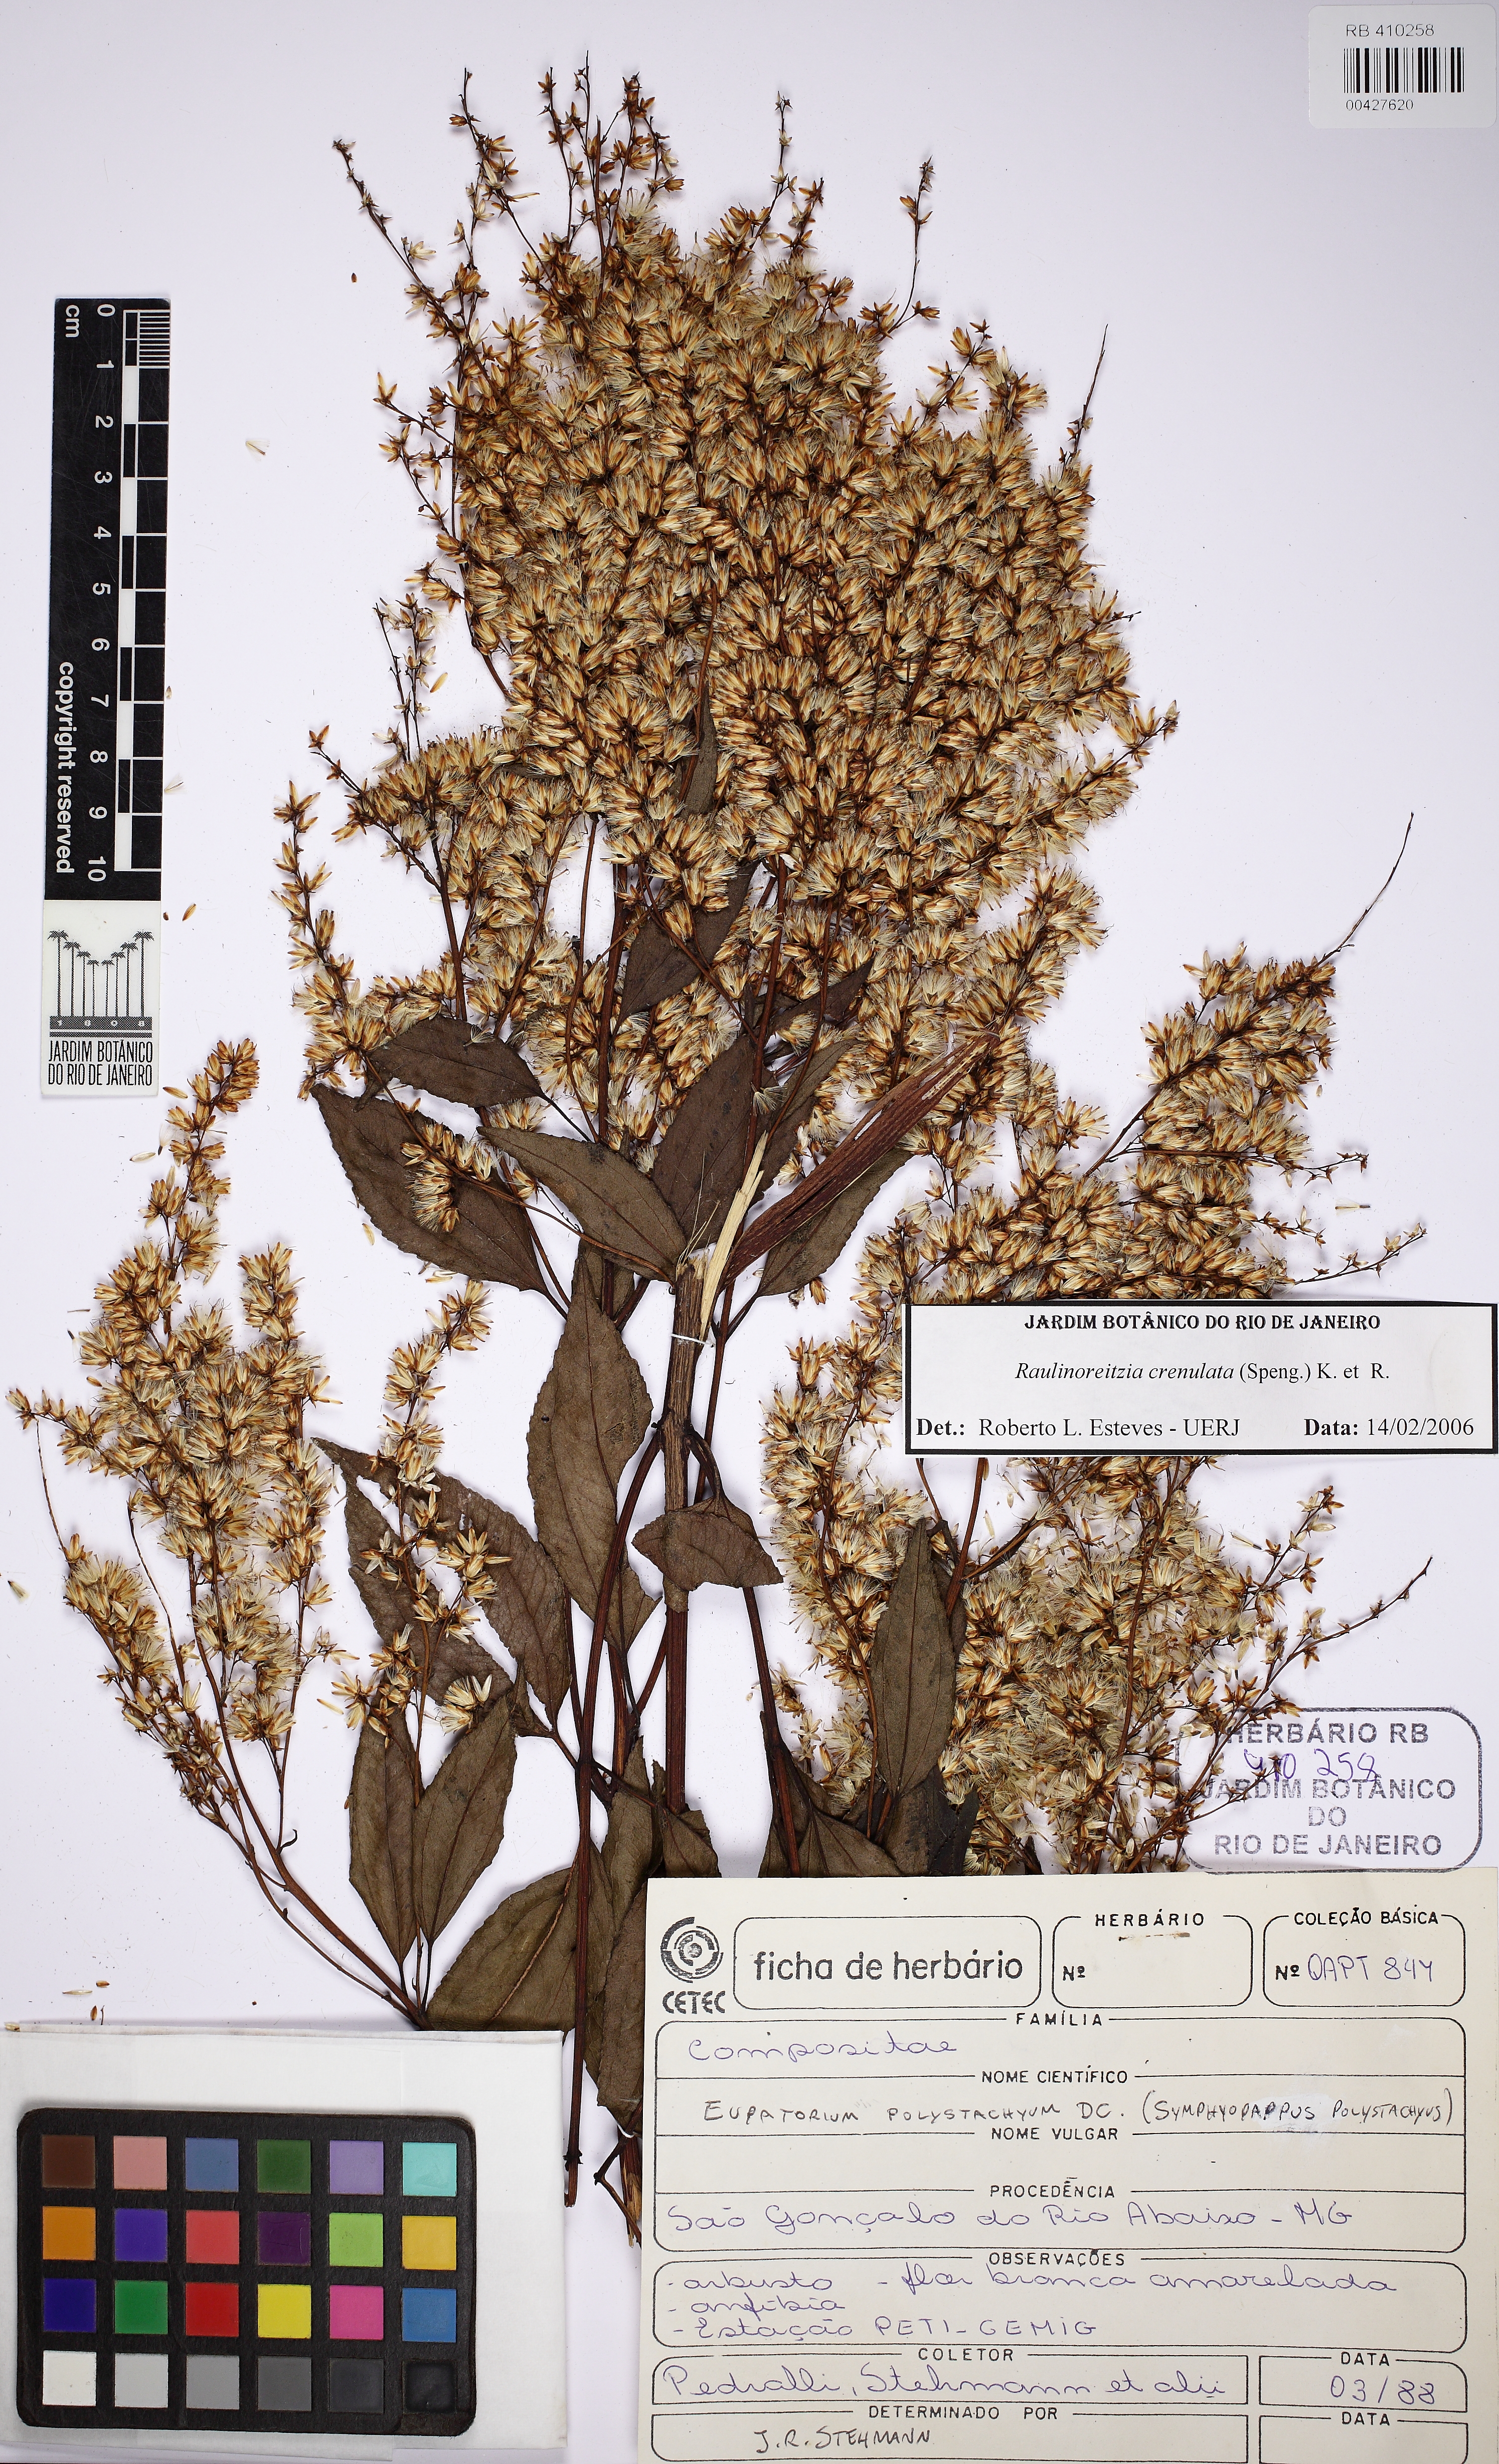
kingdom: Plantae
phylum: Tracheophyta
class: Magnoliopsida
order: Asterales
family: Asteraceae
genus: Raulinoreitzia
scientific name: Raulinoreitzia crenulata
